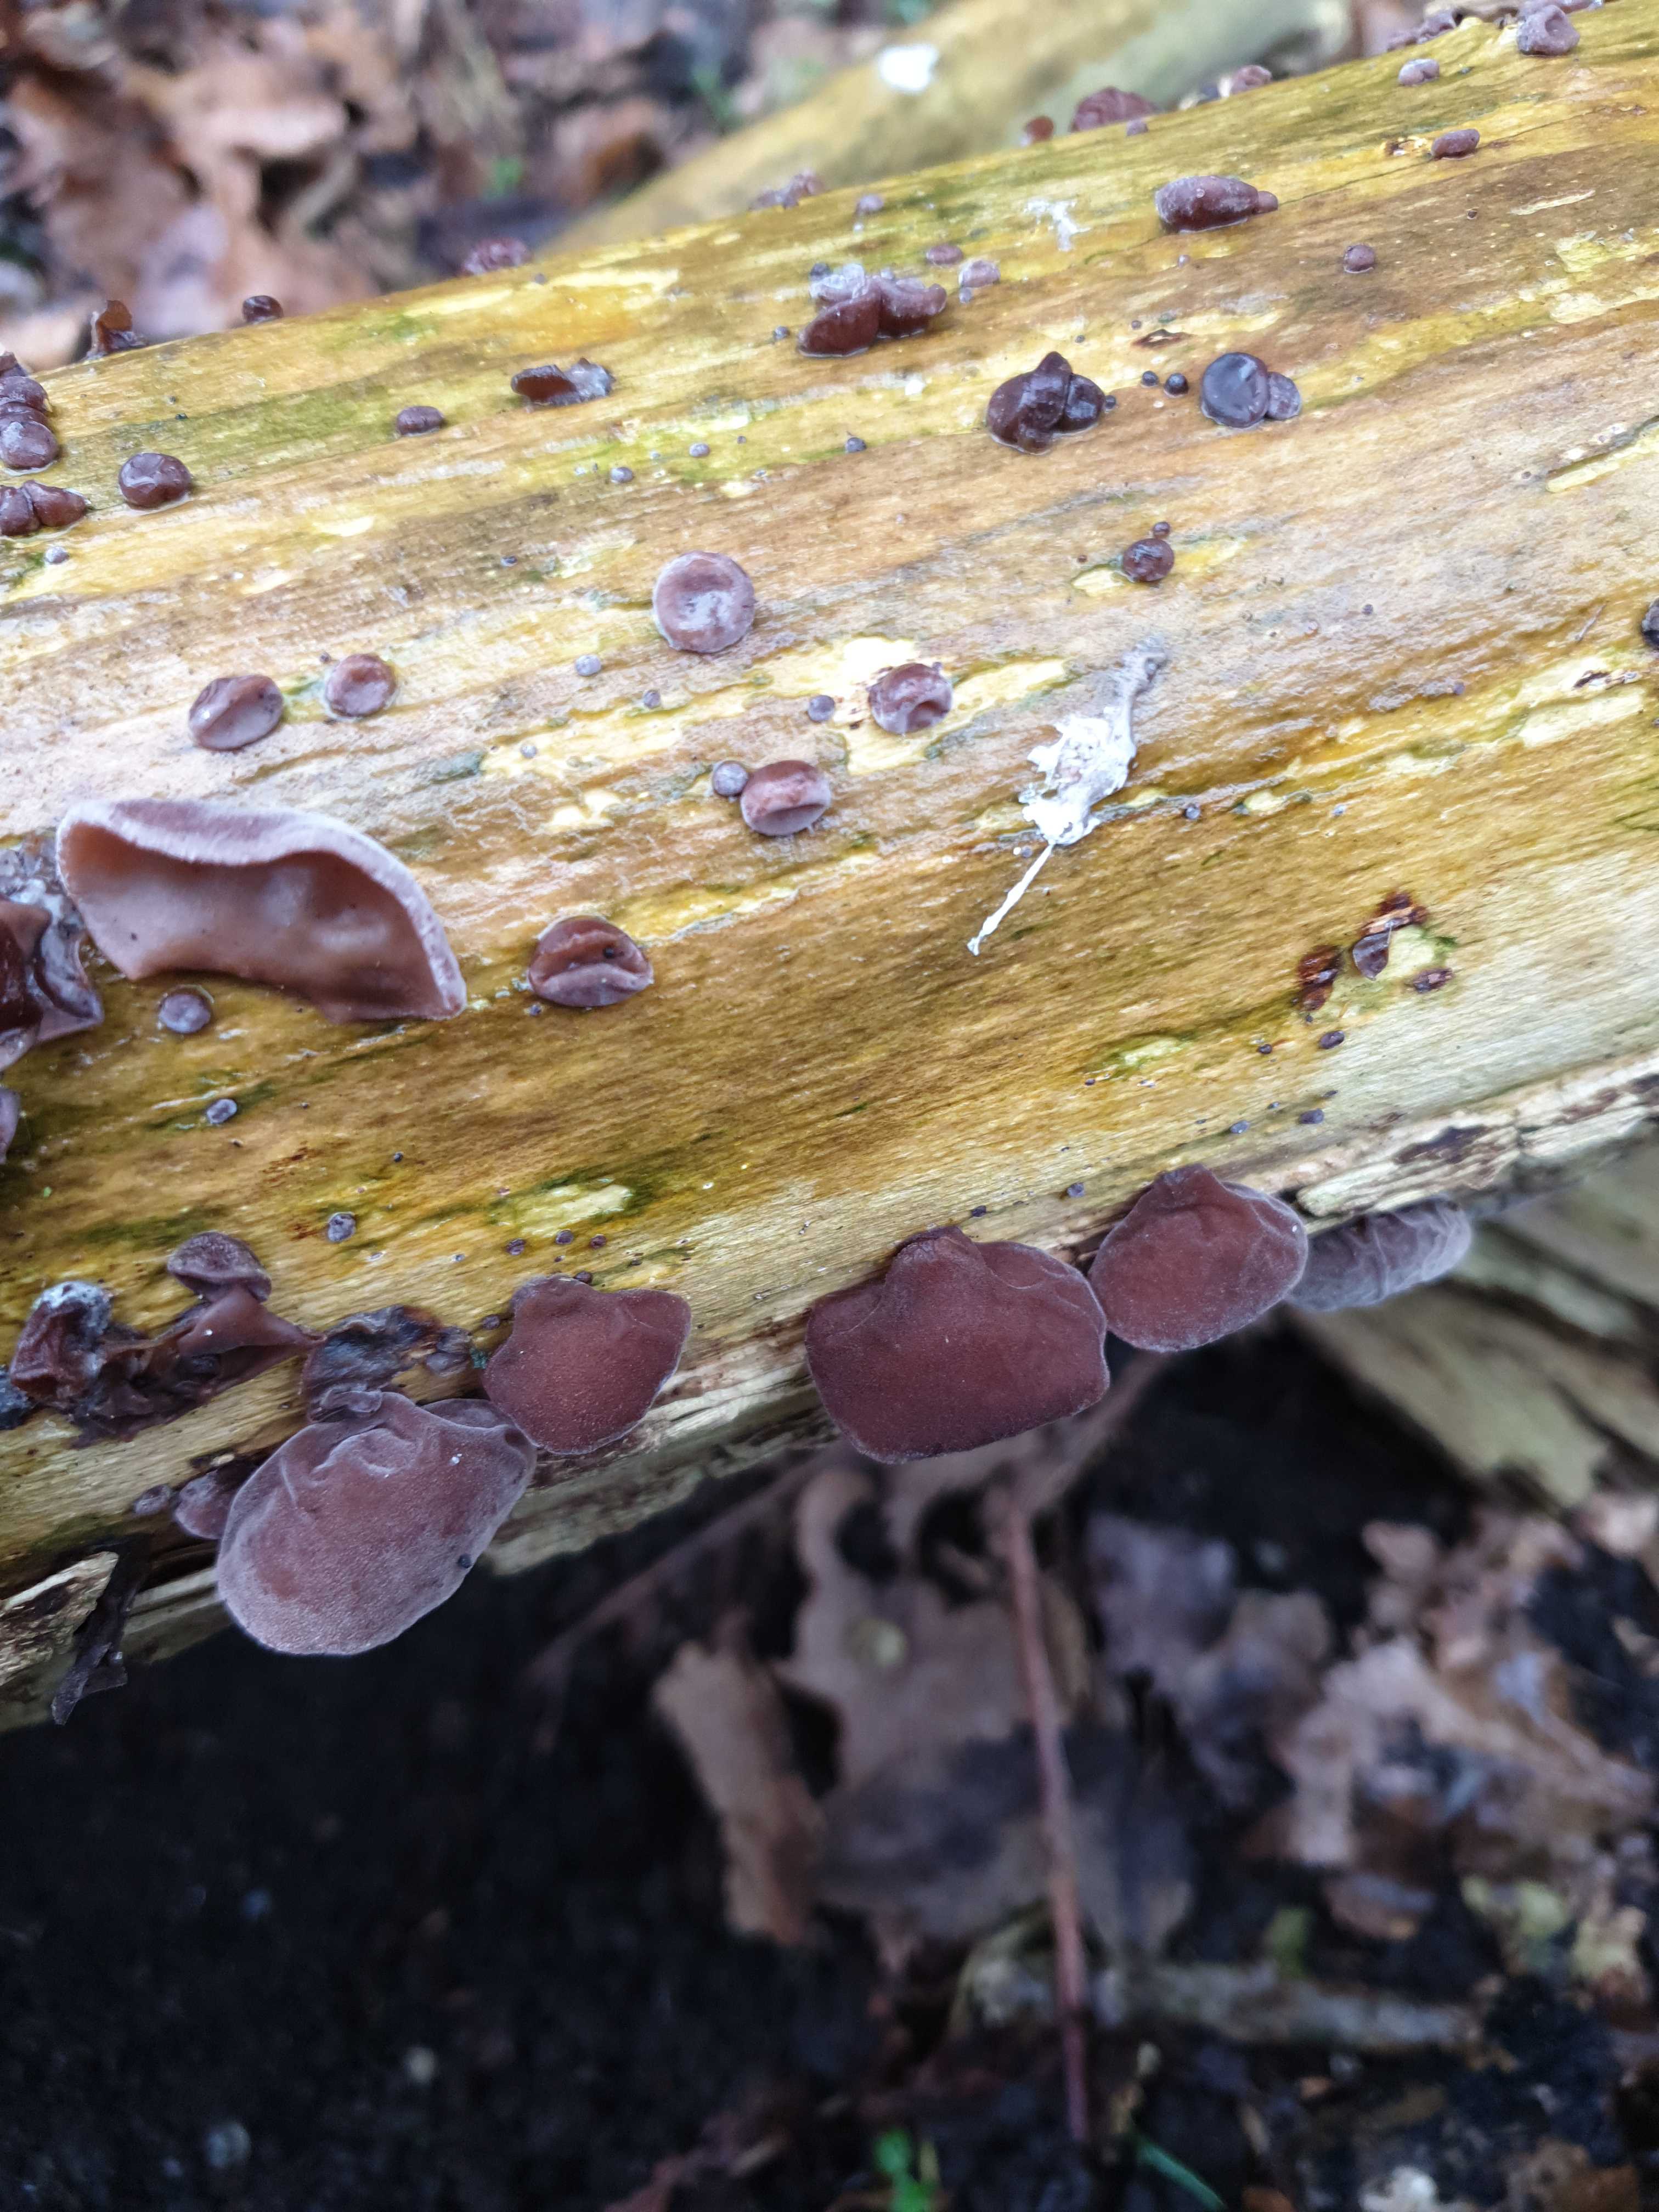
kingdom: Fungi
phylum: Basidiomycota
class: Agaricomycetes
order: Auriculariales
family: Auriculariaceae
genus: Auricularia
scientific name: Auricularia auricula-judae
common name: almindelig judasøre
